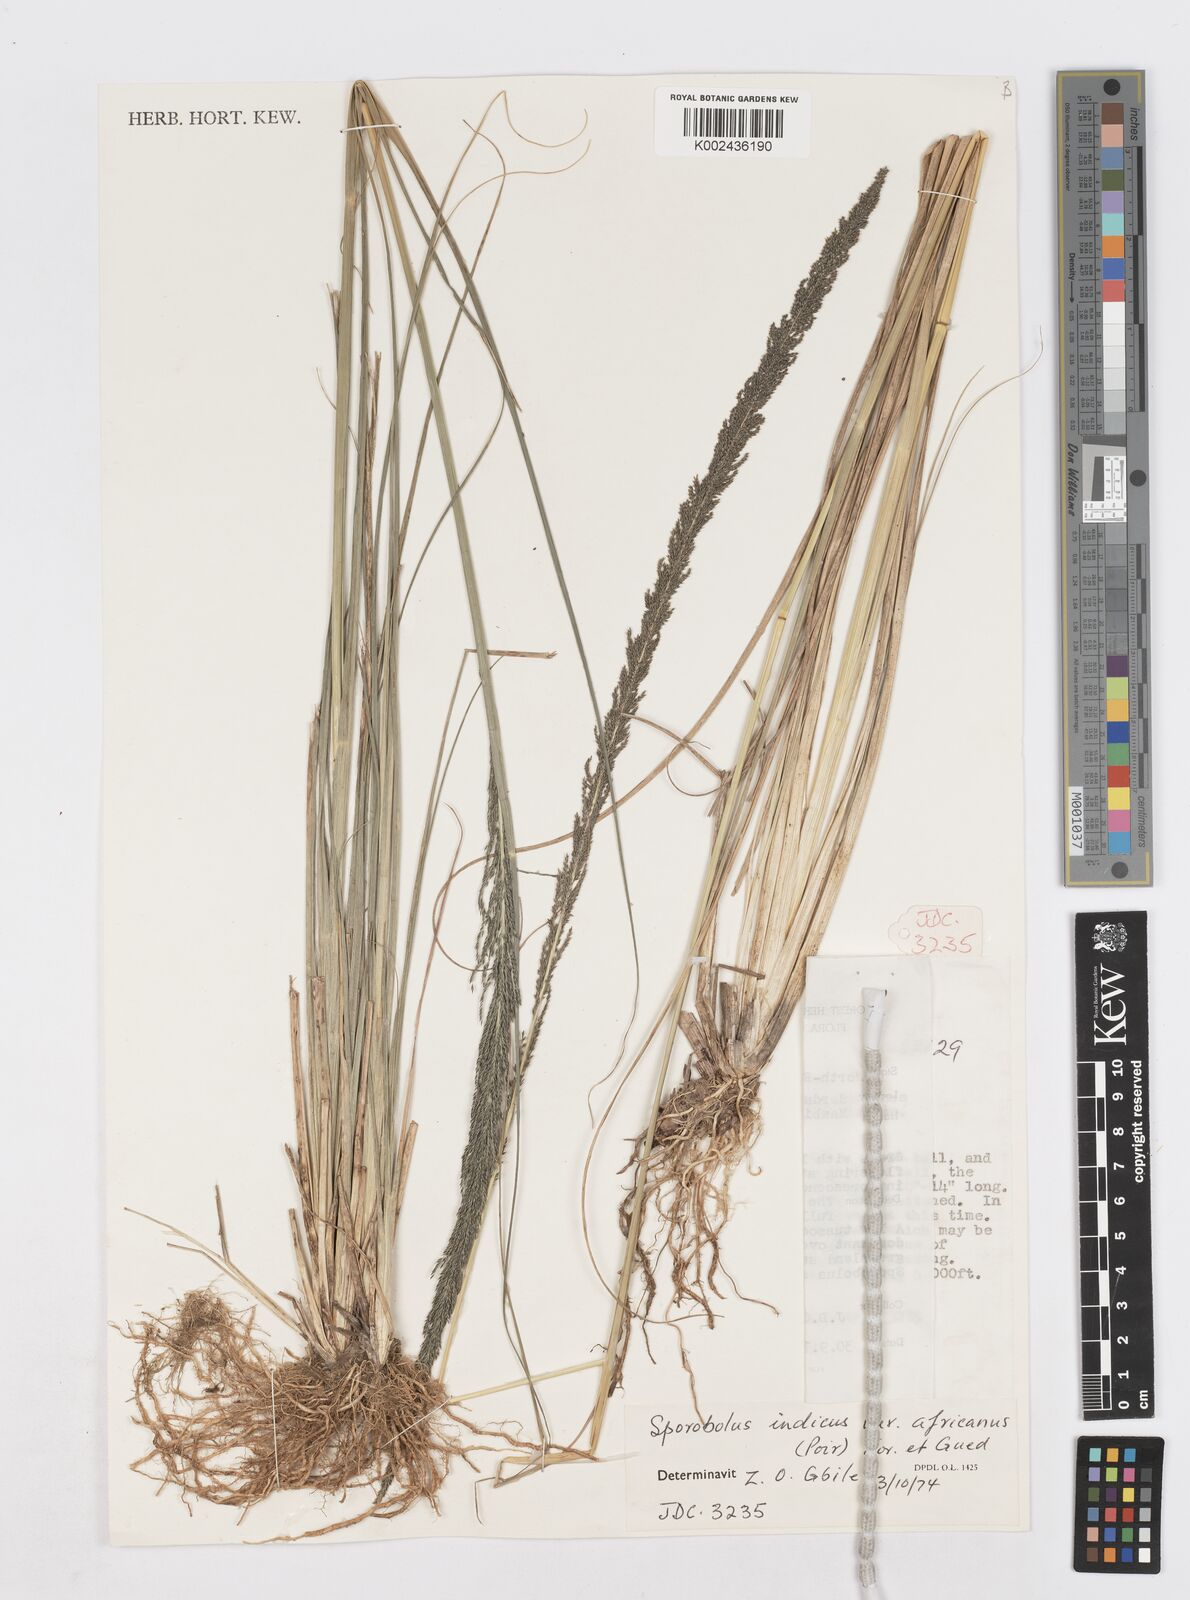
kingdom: Plantae
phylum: Tracheophyta
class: Liliopsida
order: Poales
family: Poaceae
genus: Sporobolus
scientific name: Sporobolus africanus
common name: African dropseed
